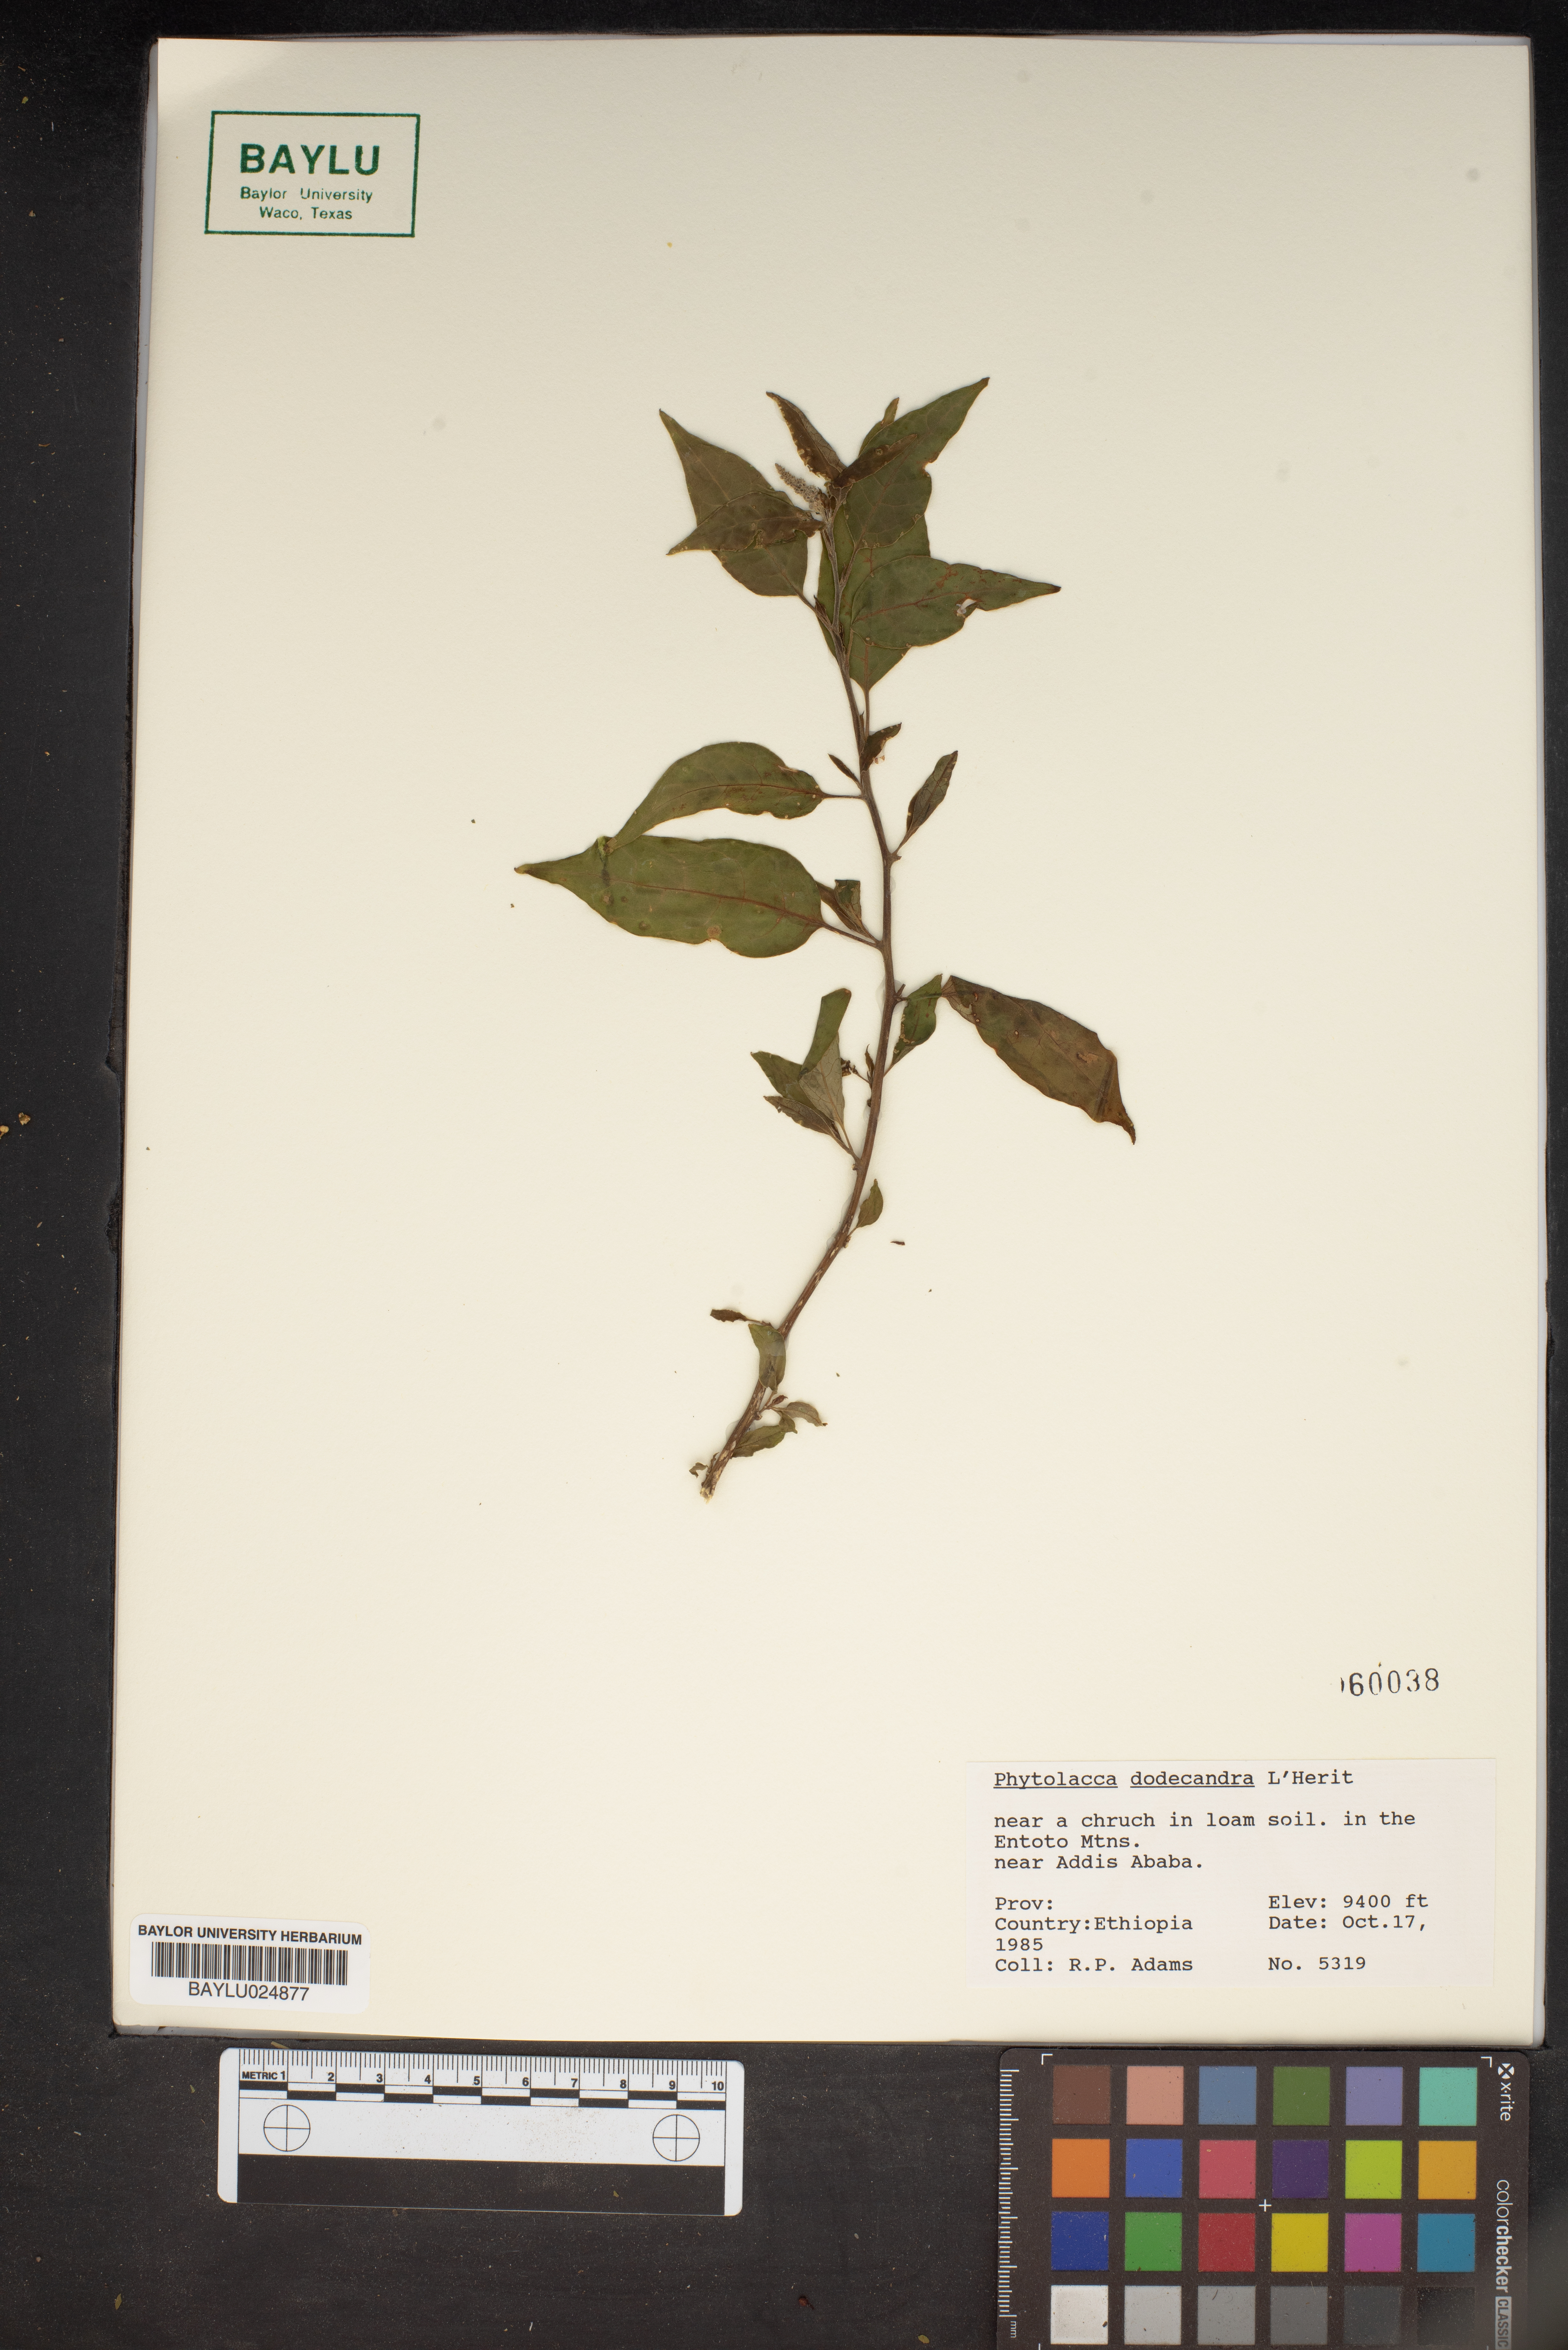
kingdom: Plantae
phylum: Tracheophyta
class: Magnoliopsida
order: Caryophyllales
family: Phytolaccaceae
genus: Phytolacca
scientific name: Phytolacca
